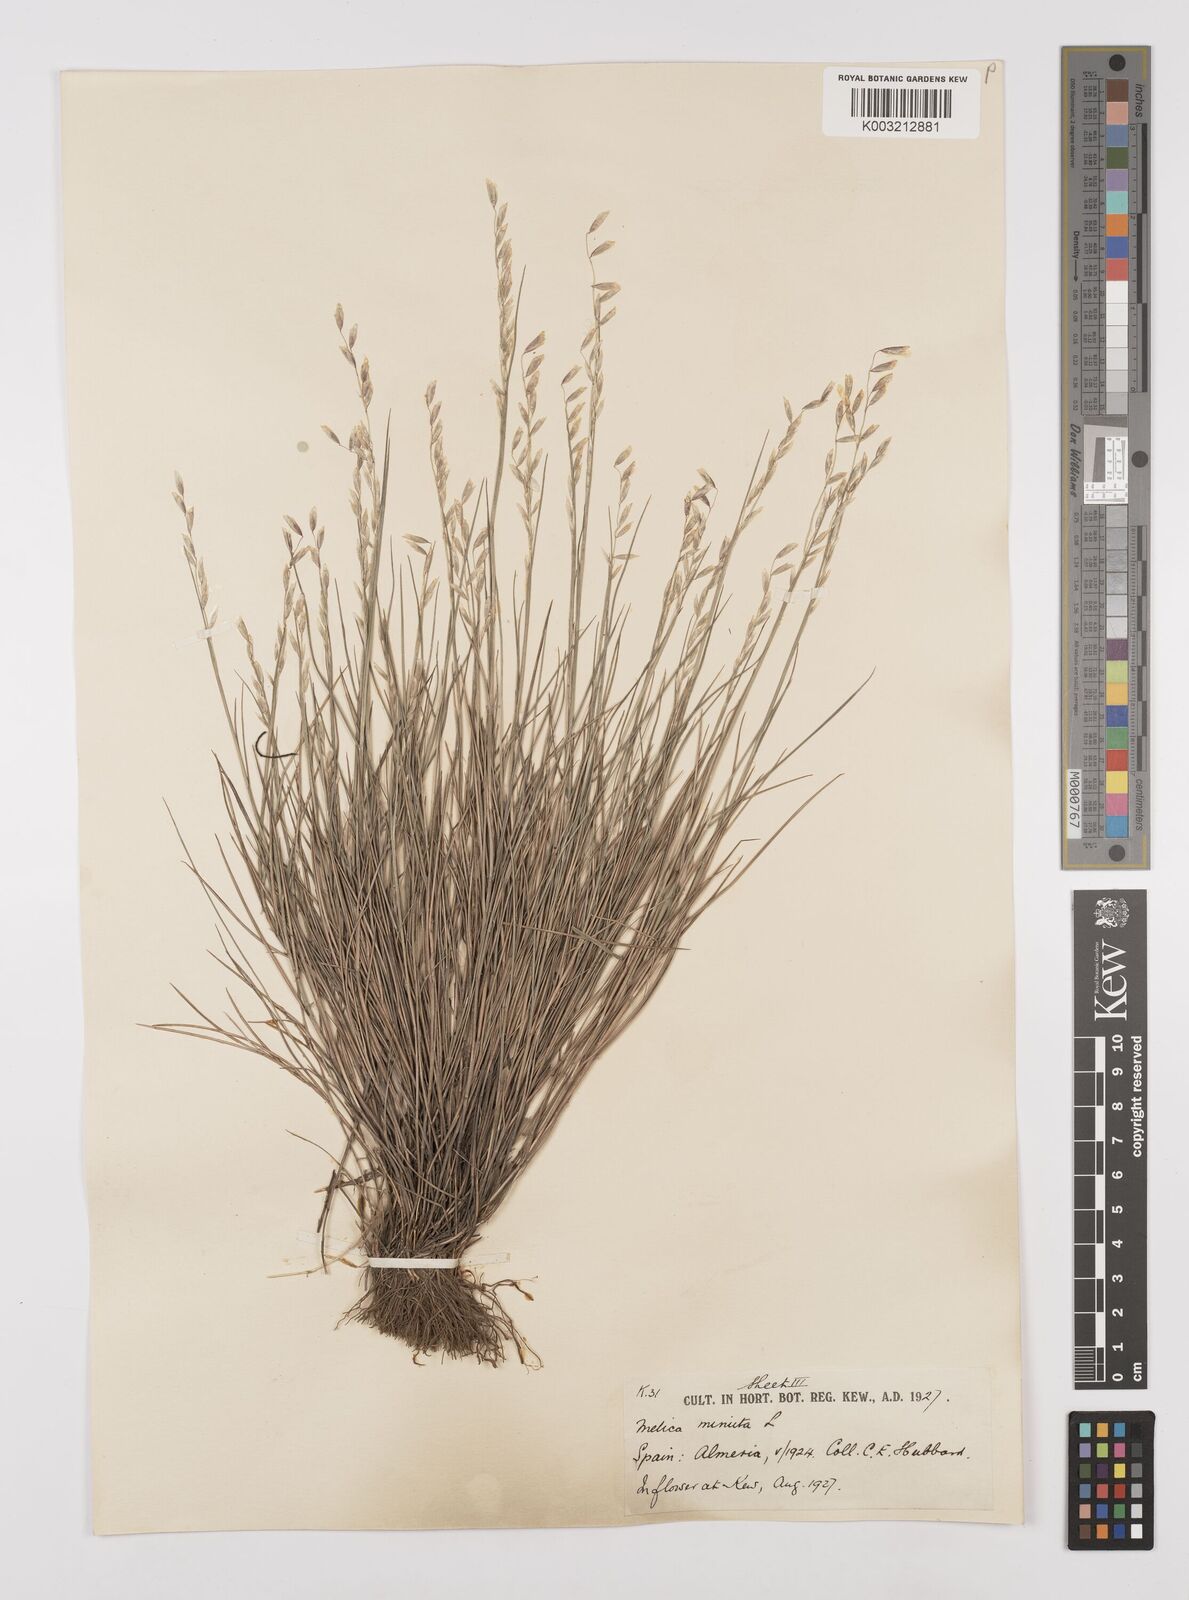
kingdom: Plantae
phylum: Tracheophyta
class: Liliopsida
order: Poales
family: Poaceae
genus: Melica
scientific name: Melica minuta
